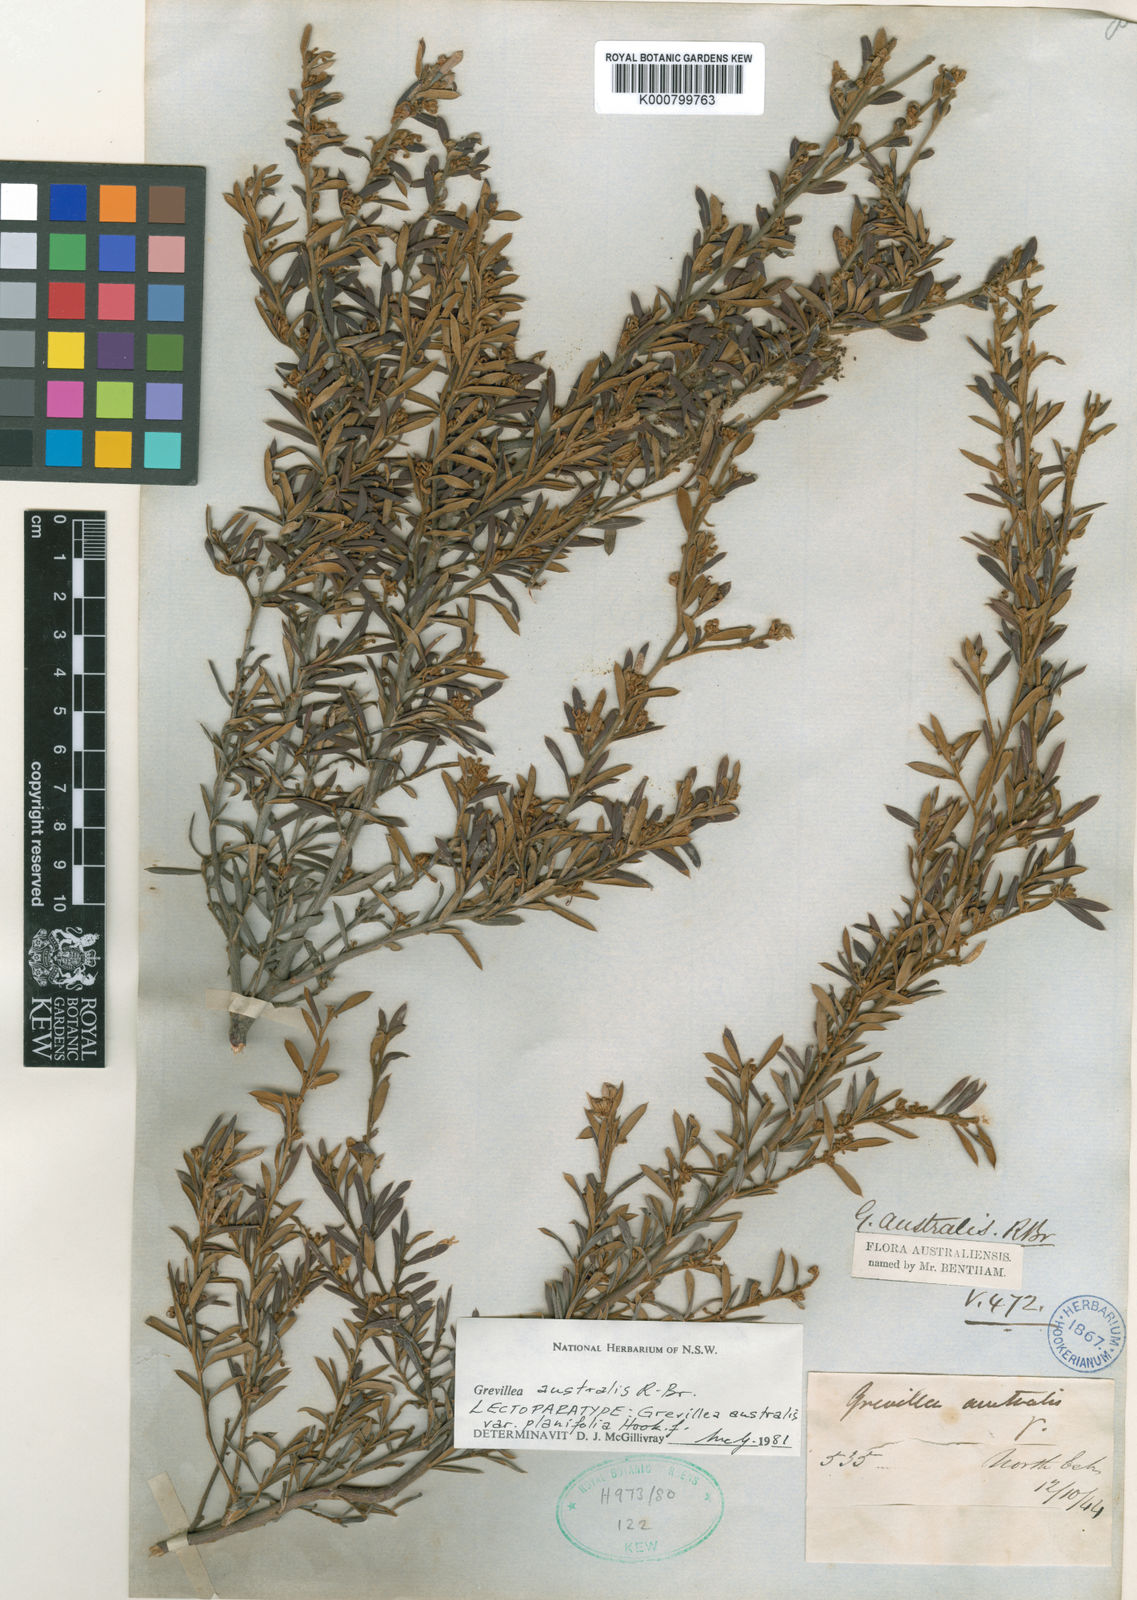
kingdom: Plantae
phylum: Tracheophyta
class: Magnoliopsida
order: Proteales
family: Proteaceae
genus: Grevillea
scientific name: Grevillea australis
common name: Alpine grevillea
